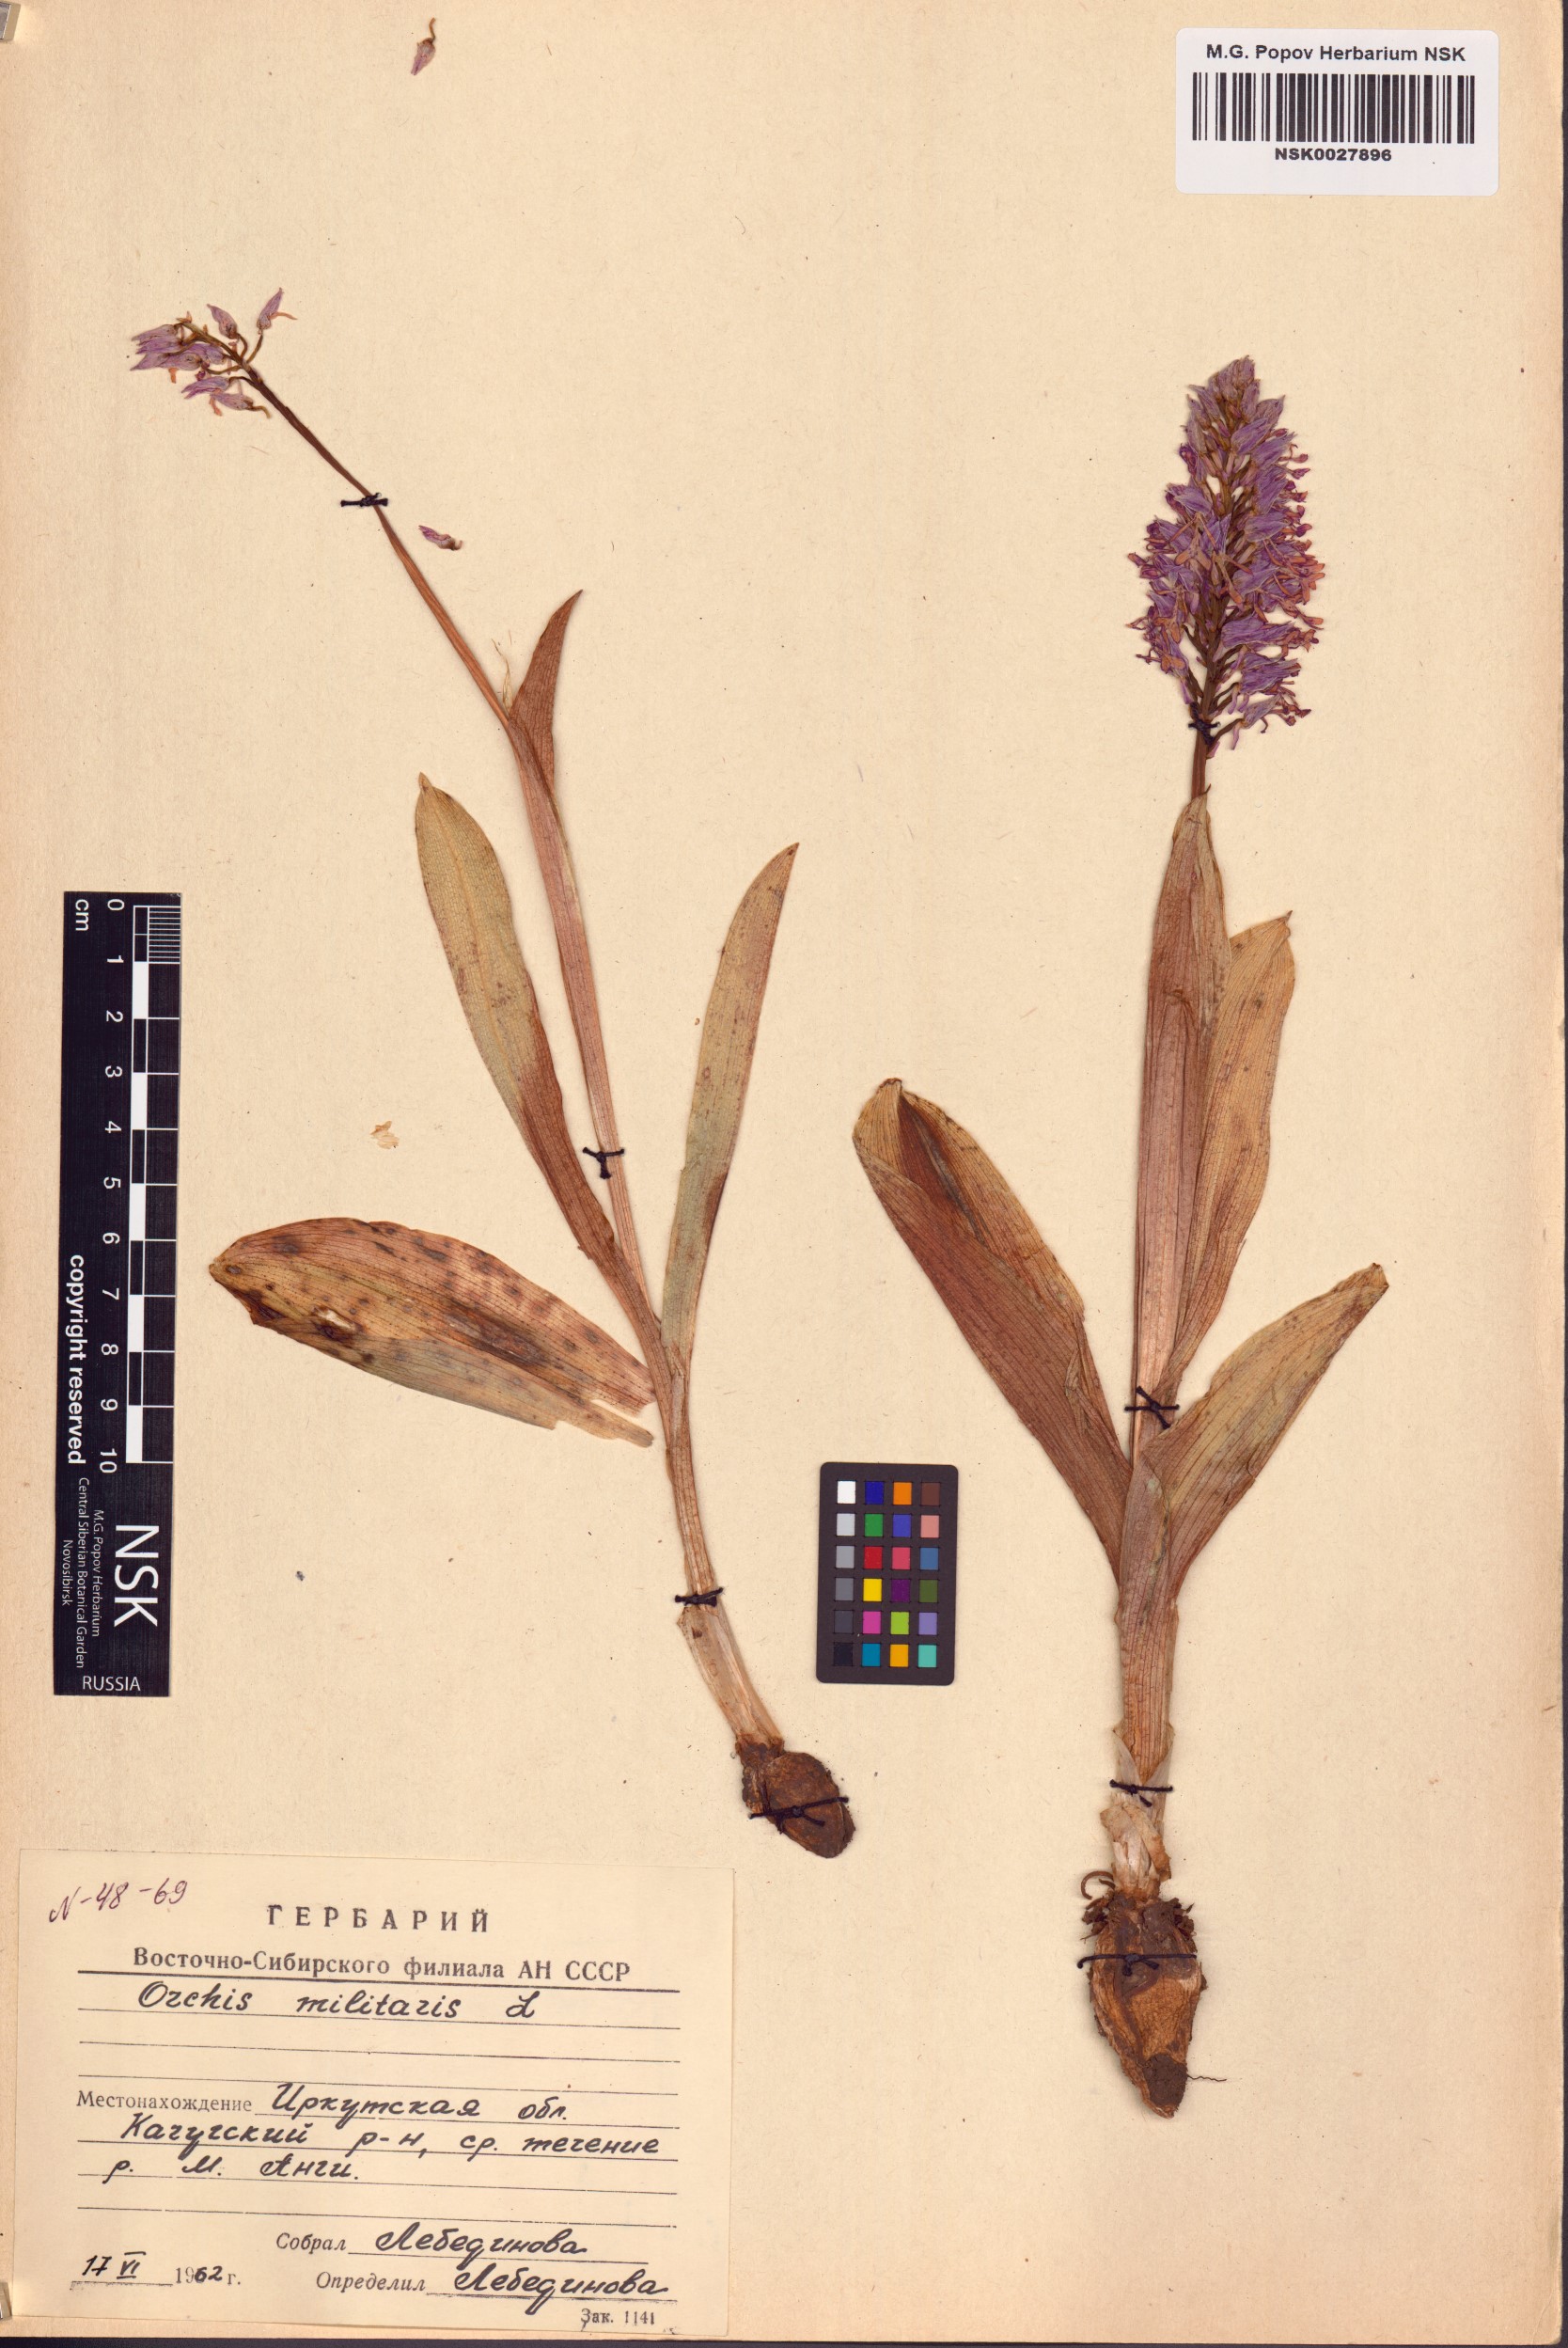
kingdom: Plantae
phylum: Tracheophyta
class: Liliopsida
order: Asparagales
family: Orchidaceae
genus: Orchis
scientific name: Orchis militaris
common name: Military orchid
